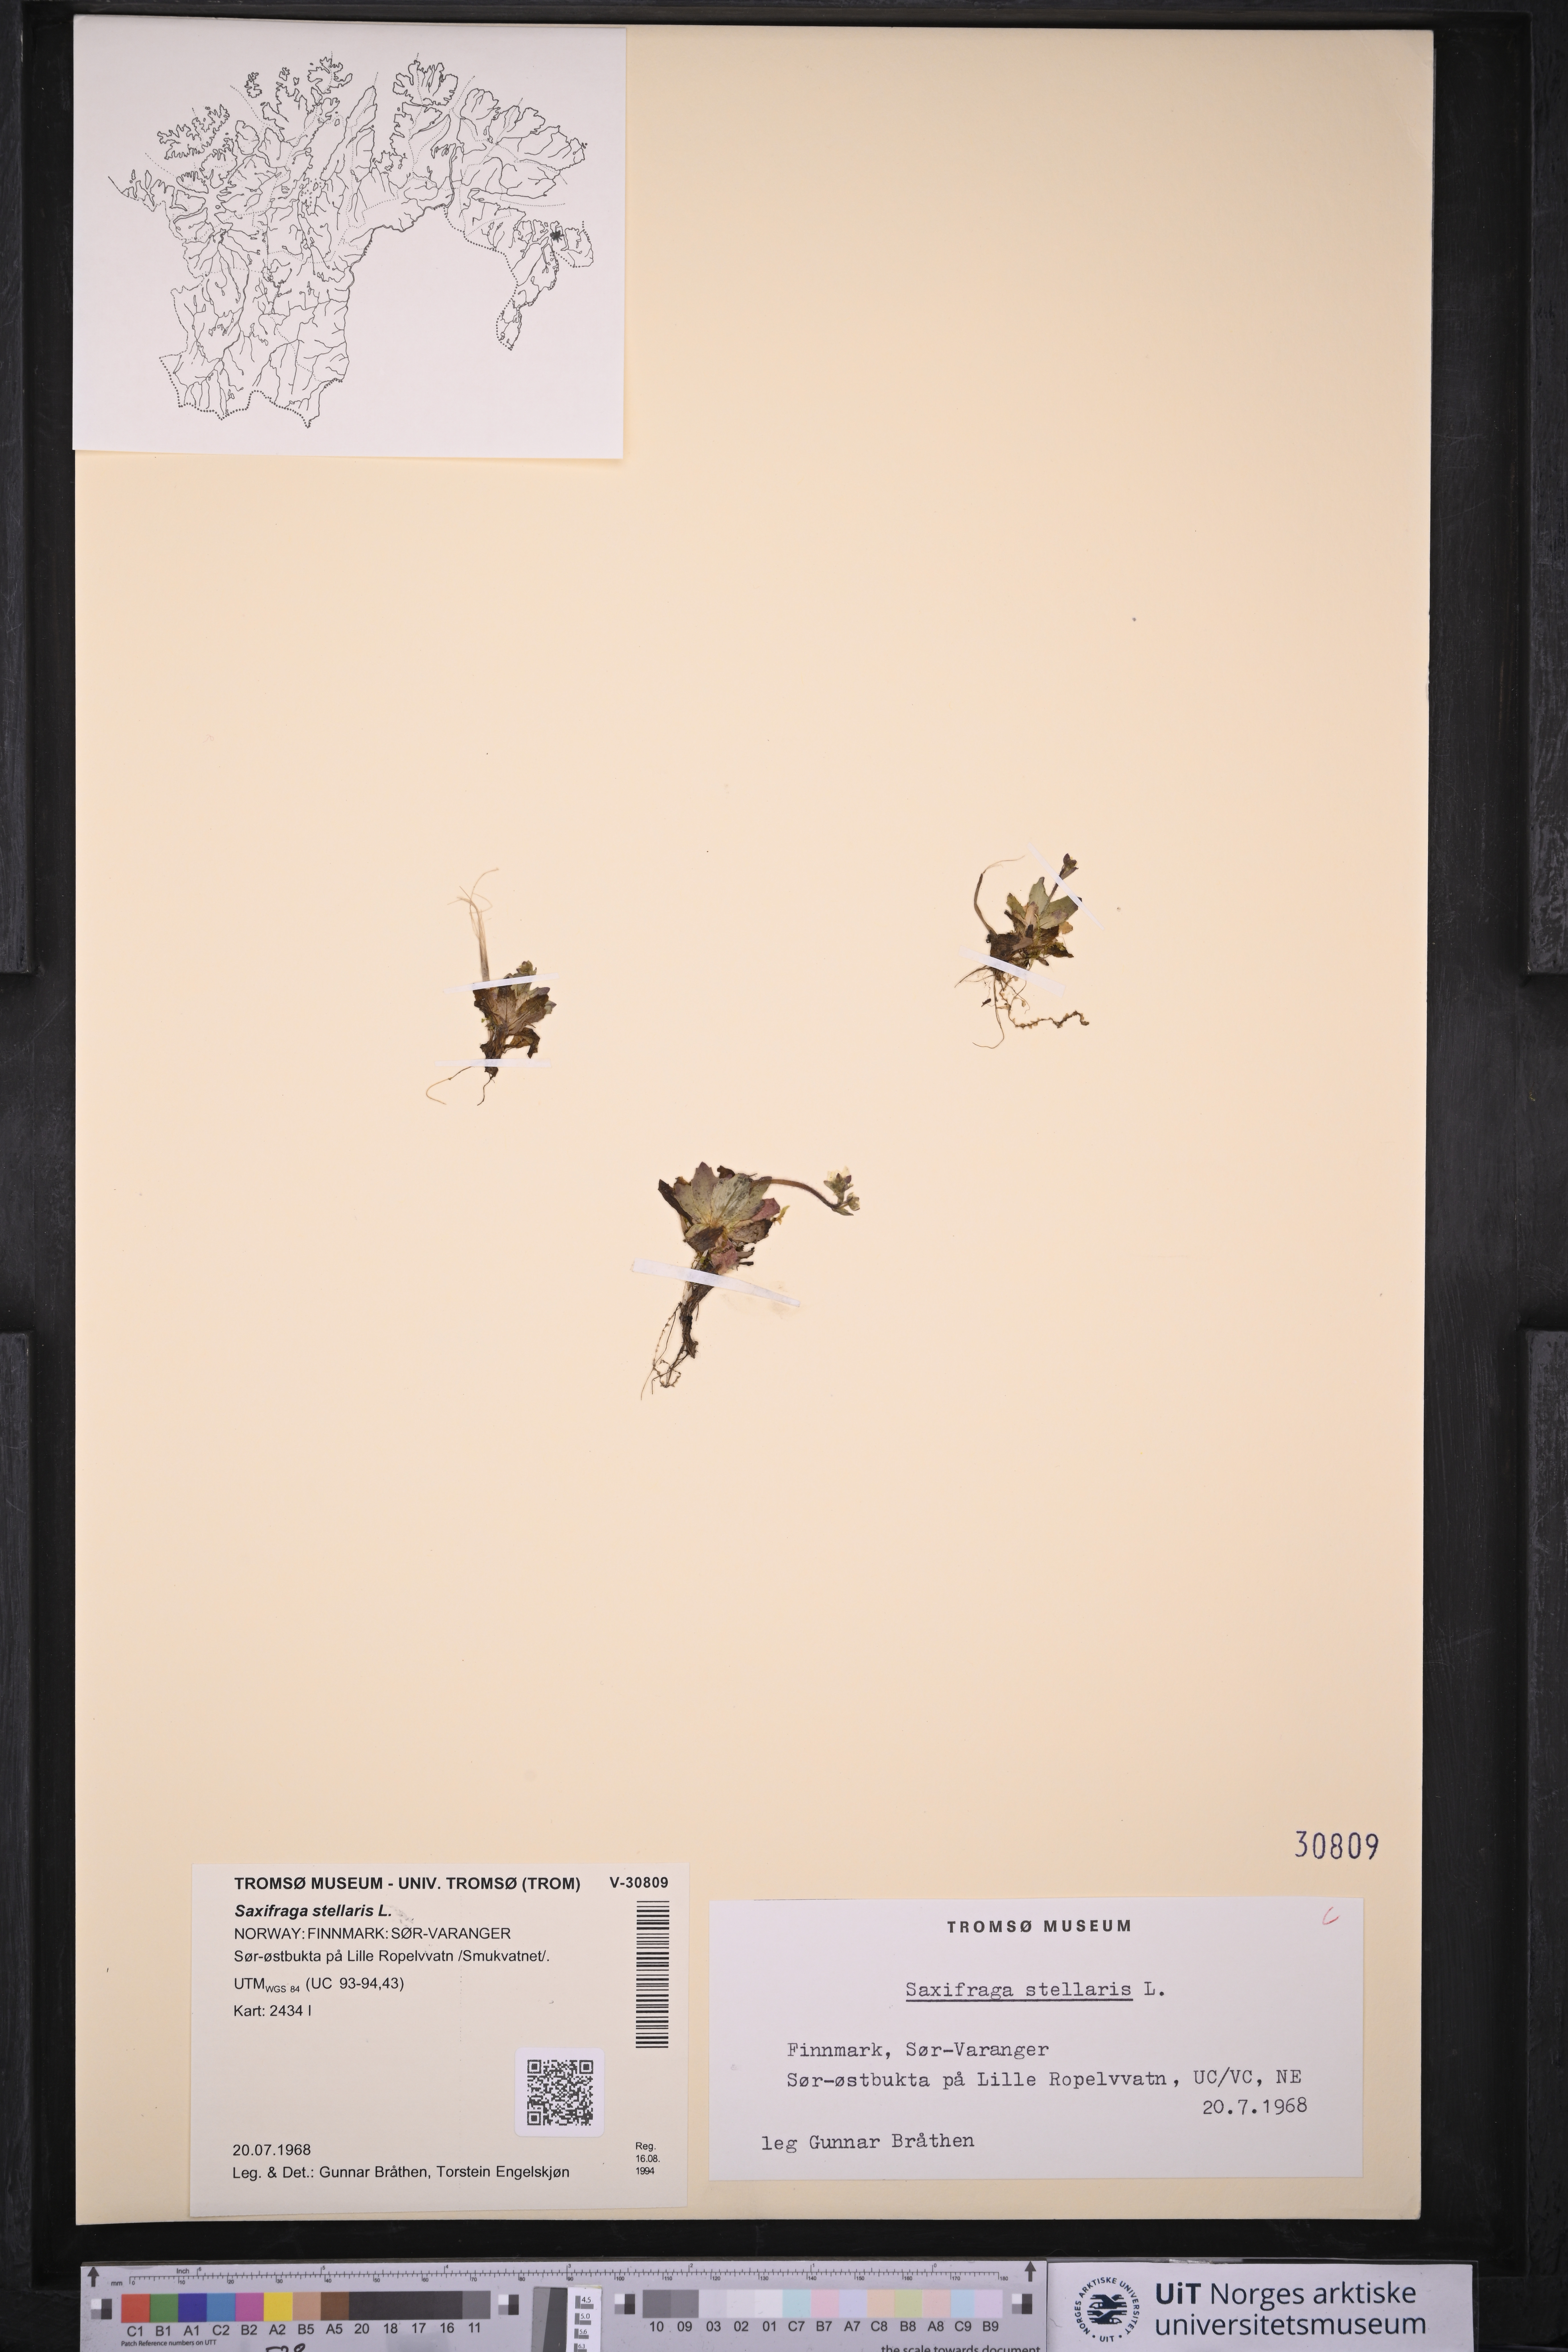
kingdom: Plantae
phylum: Tracheophyta
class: Magnoliopsida
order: Saxifragales
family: Saxifragaceae
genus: Micranthes
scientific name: Micranthes stellaris
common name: Starry saxifrage
